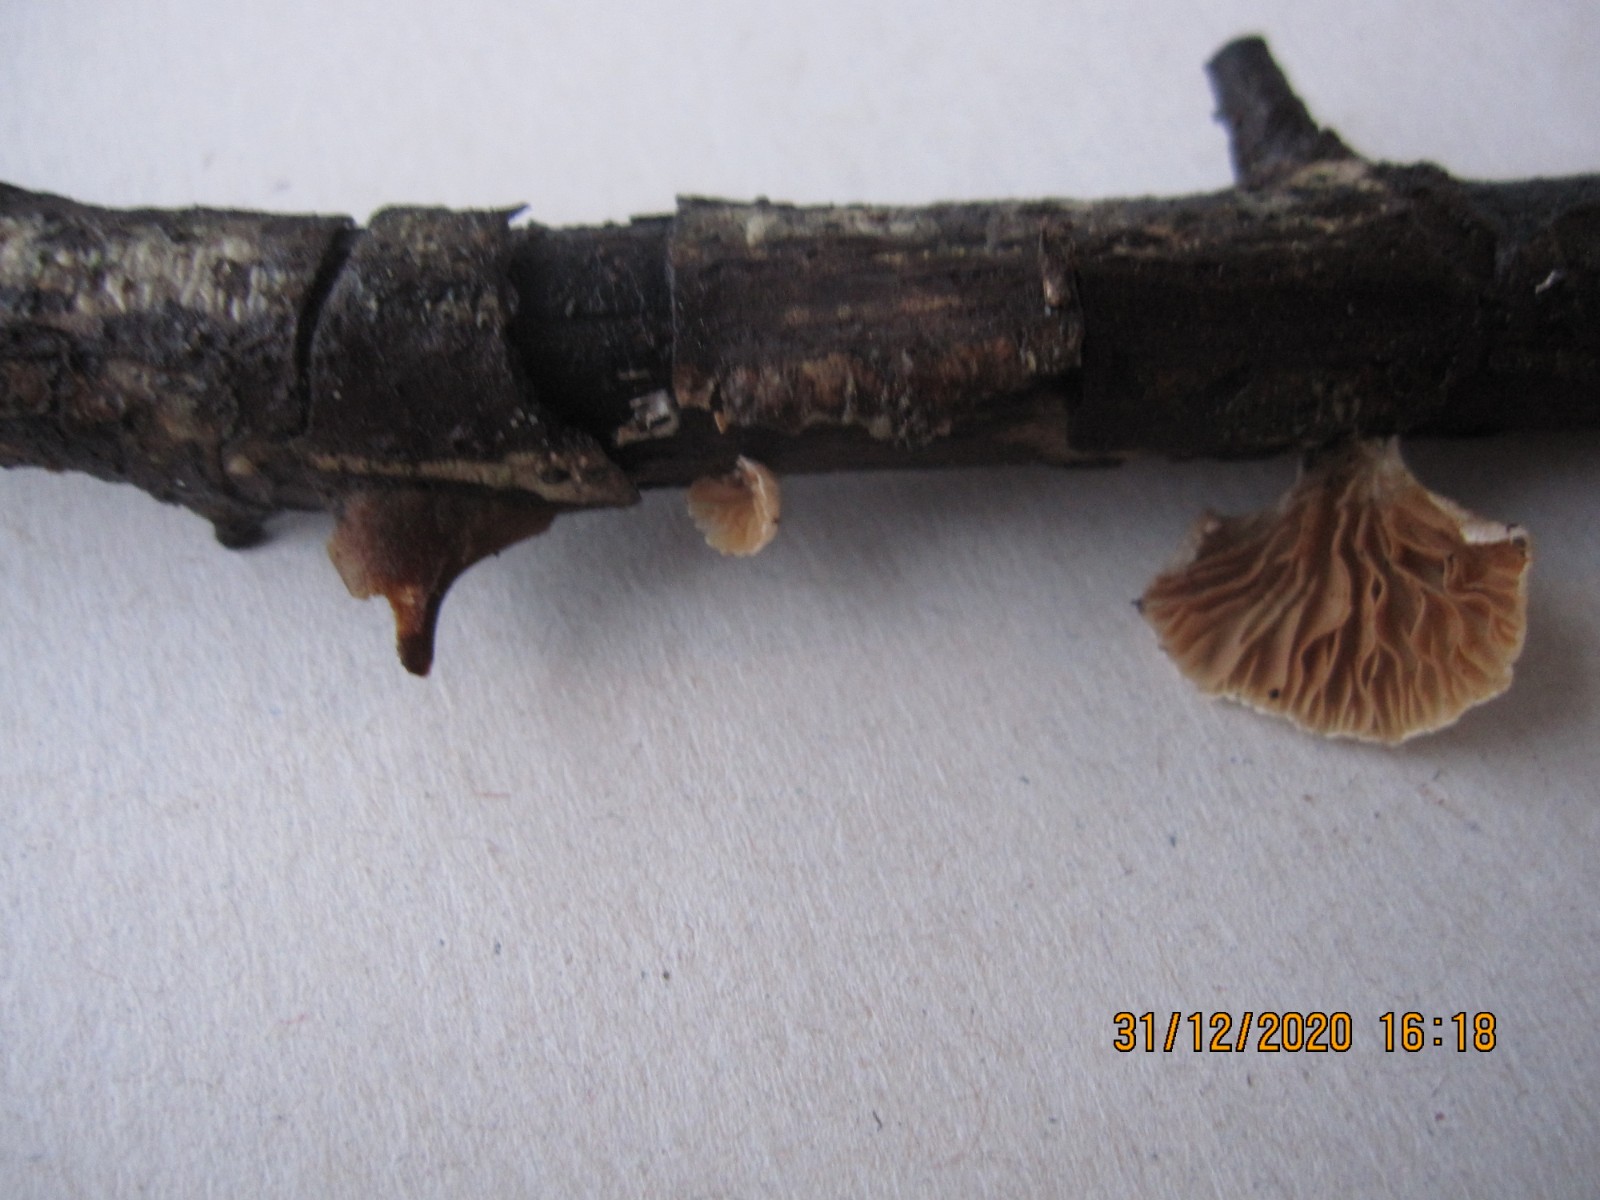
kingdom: Fungi
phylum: Basidiomycota
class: Agaricomycetes
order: Agaricales
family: Crepidotaceae
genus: Crepidotus
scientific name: Crepidotus cesatii
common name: almindelig muslingesvamp
